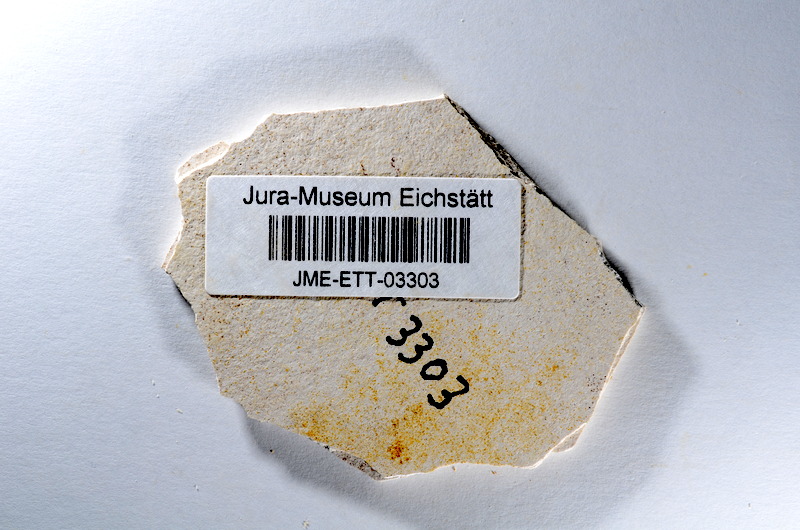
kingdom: Animalia
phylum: Chordata
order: Salmoniformes
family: Orthogonikleithridae
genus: Orthogonikleithrus
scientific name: Orthogonikleithrus hoelli
